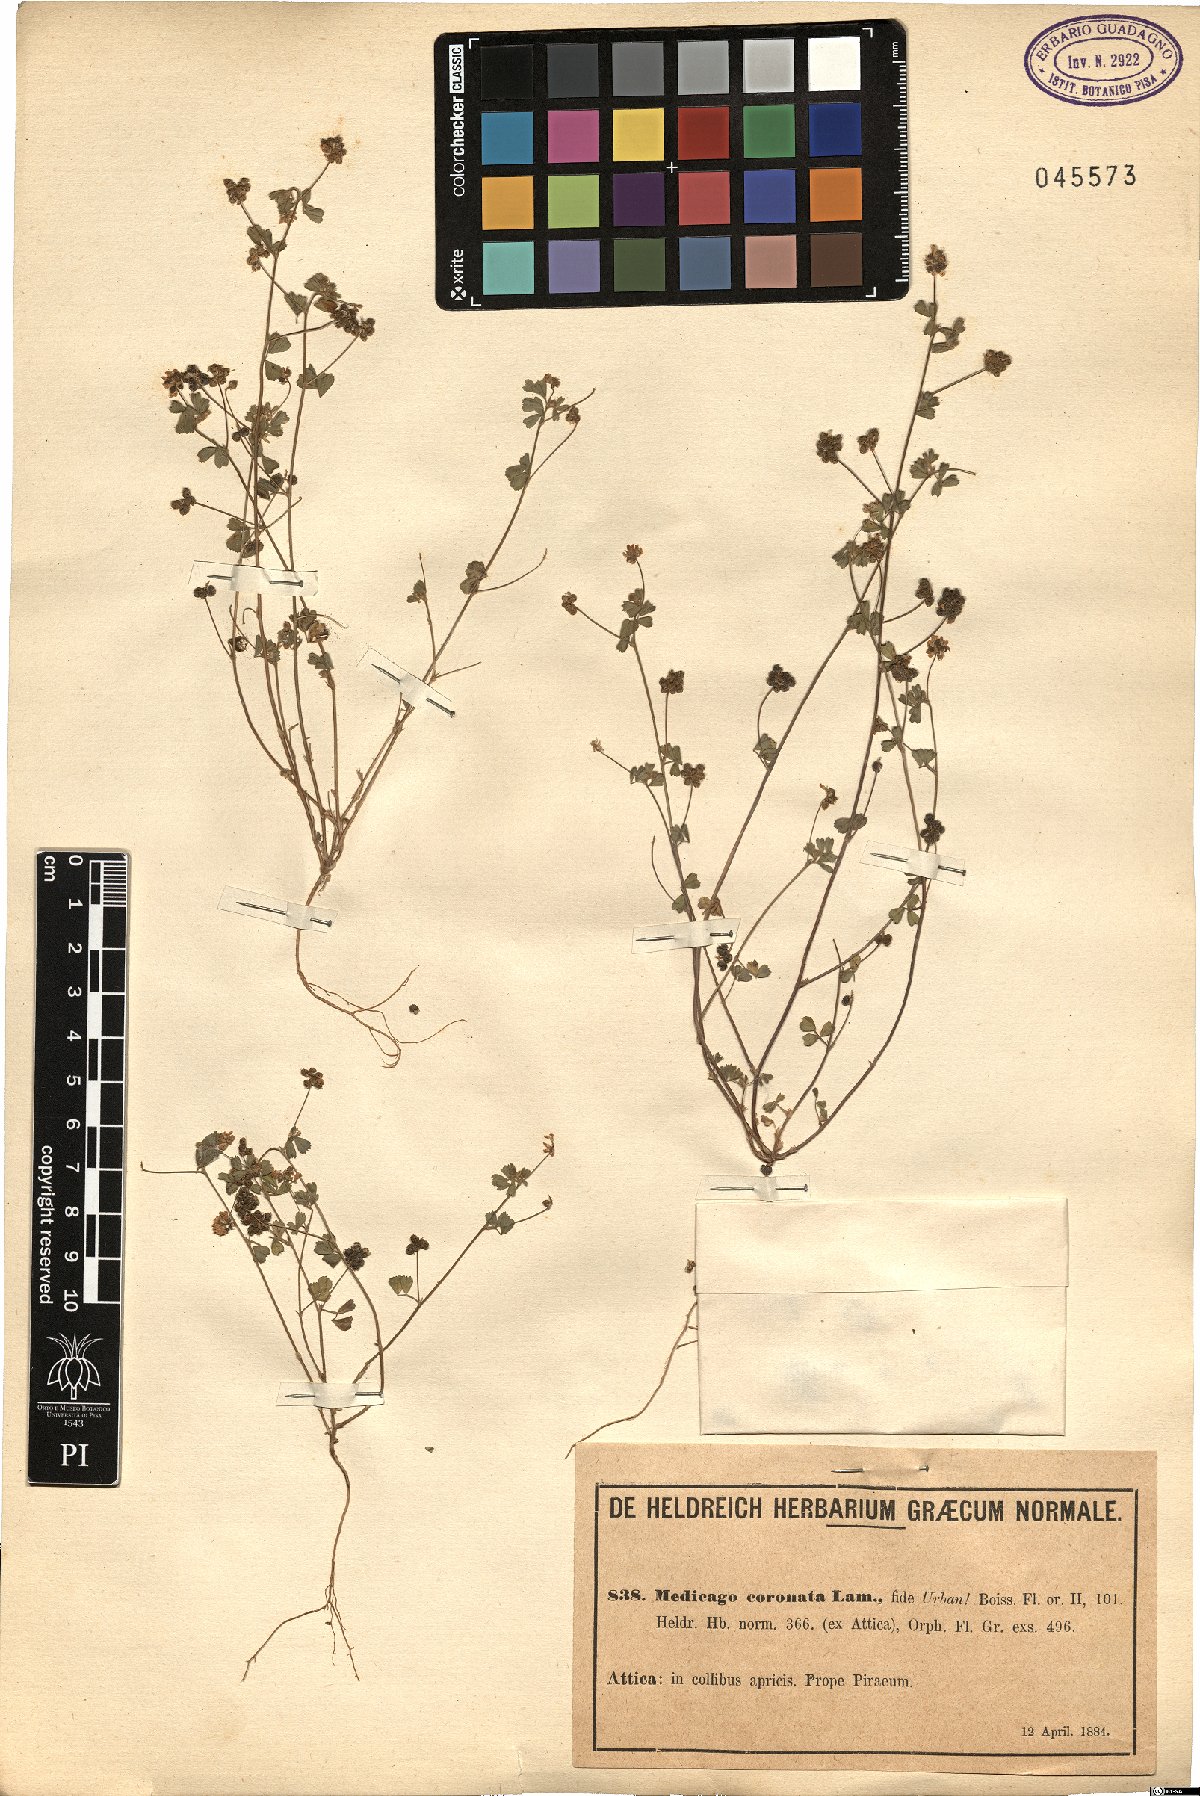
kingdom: Plantae
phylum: Tracheophyta
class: Magnoliopsida
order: Fabales
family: Fabaceae
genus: Medicago
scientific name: Medicago coronata
